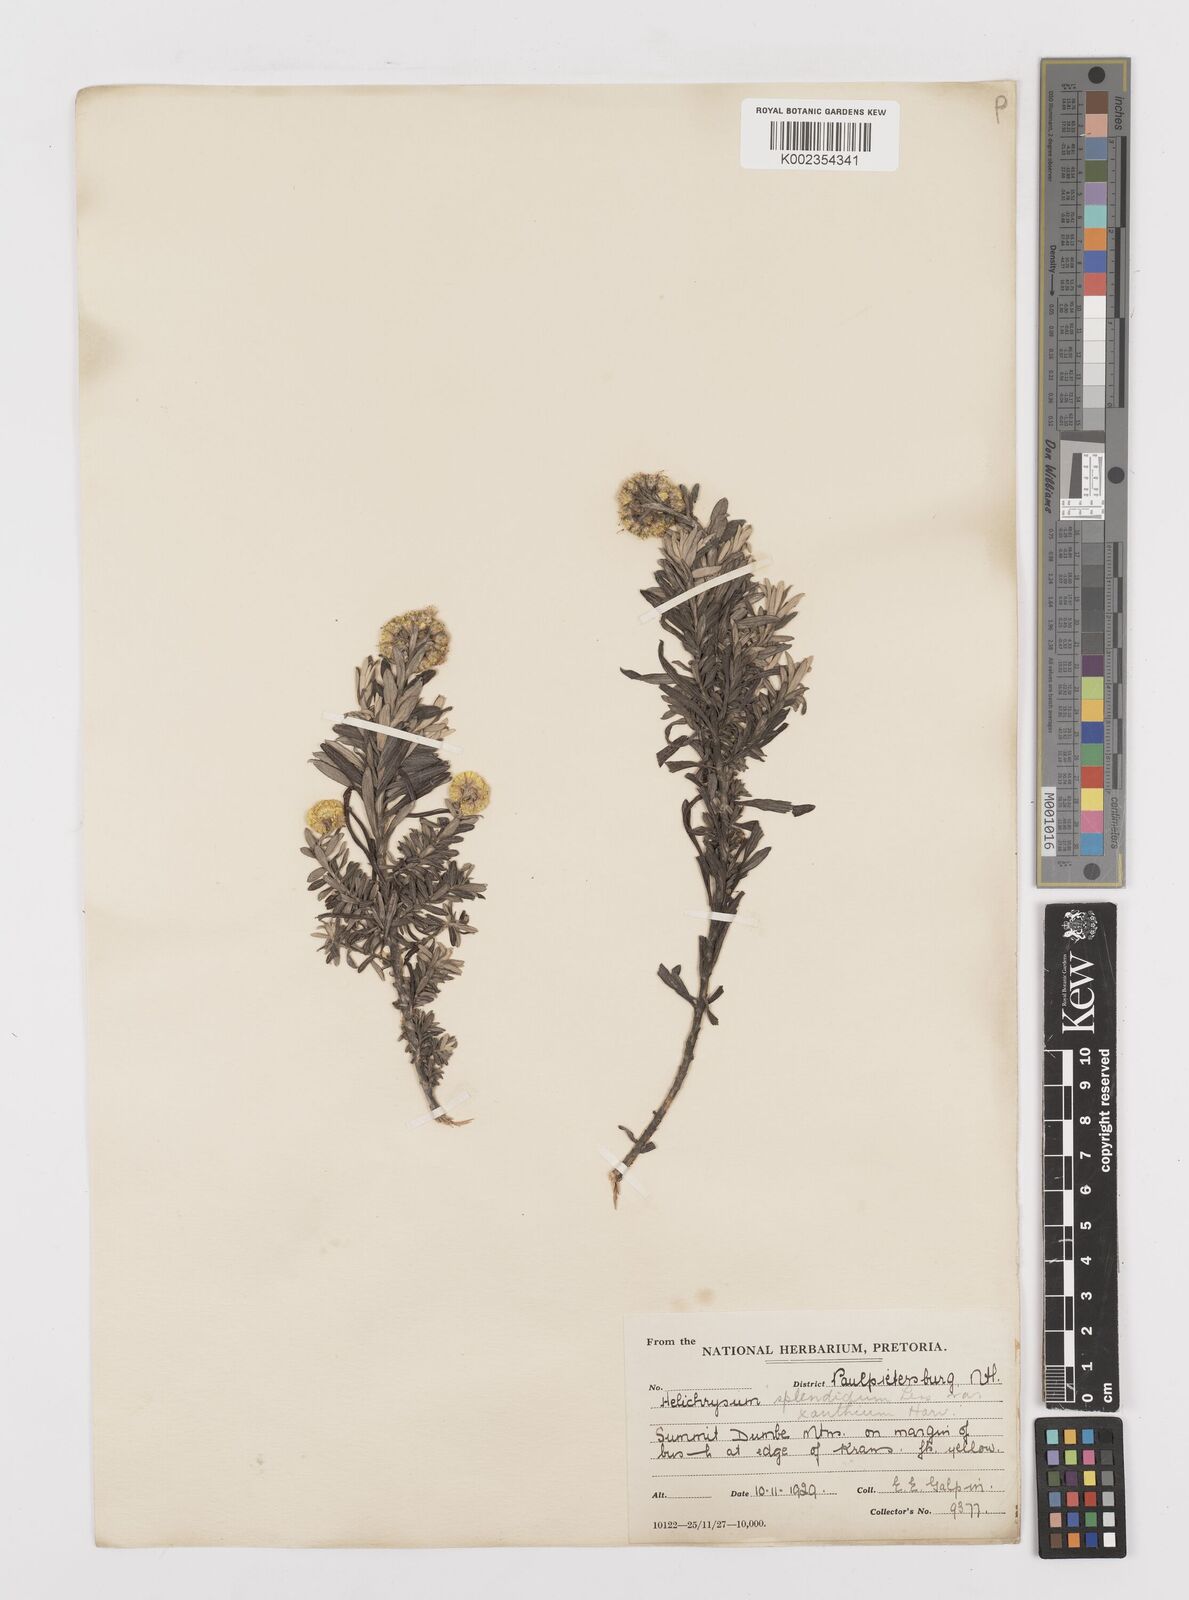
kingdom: Plantae
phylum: Tracheophyta
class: Magnoliopsida
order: Asterales
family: Asteraceae
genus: Helichrysum
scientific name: Helichrysum splendidum
